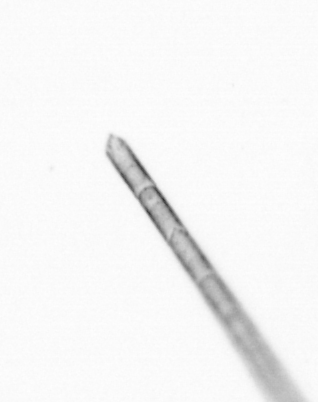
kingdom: Chromista
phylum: Ochrophyta
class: Bacillariophyceae
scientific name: Bacillariophyceae
